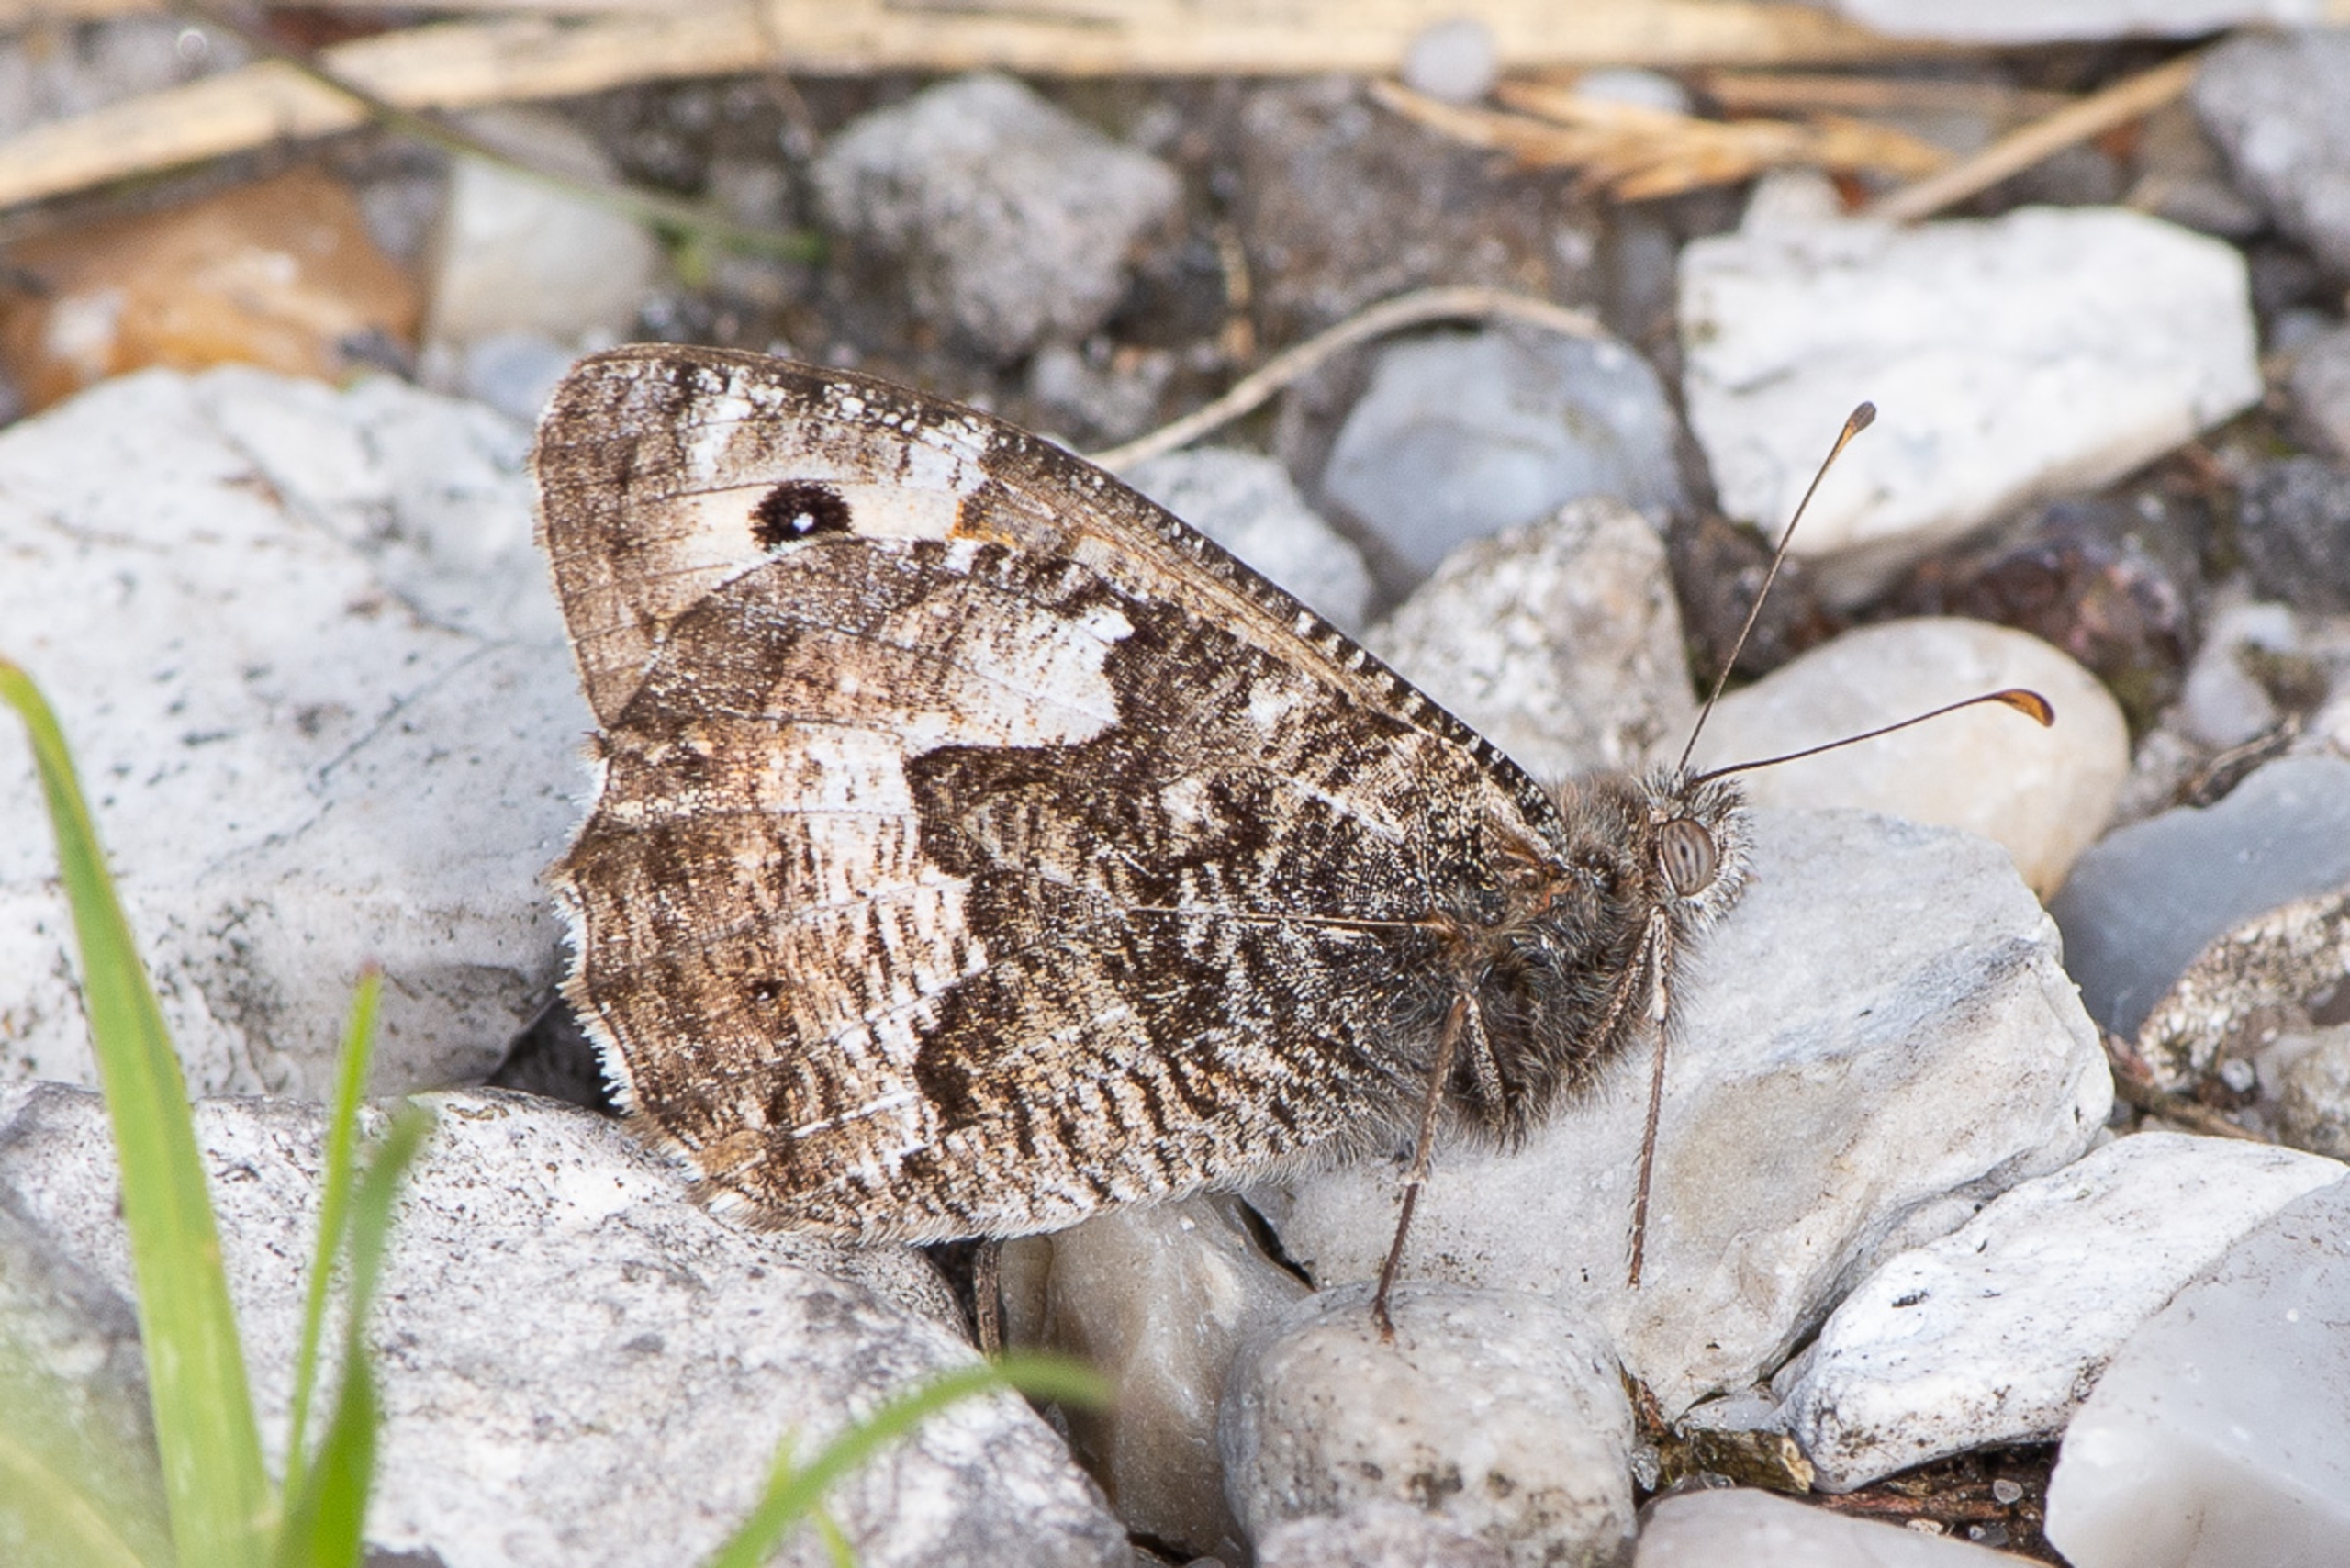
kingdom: Animalia
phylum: Arthropoda
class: Insecta
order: Lepidoptera
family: Nymphalidae
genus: Hipparchia
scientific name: Hipparchia semele
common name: Sandrandøje
